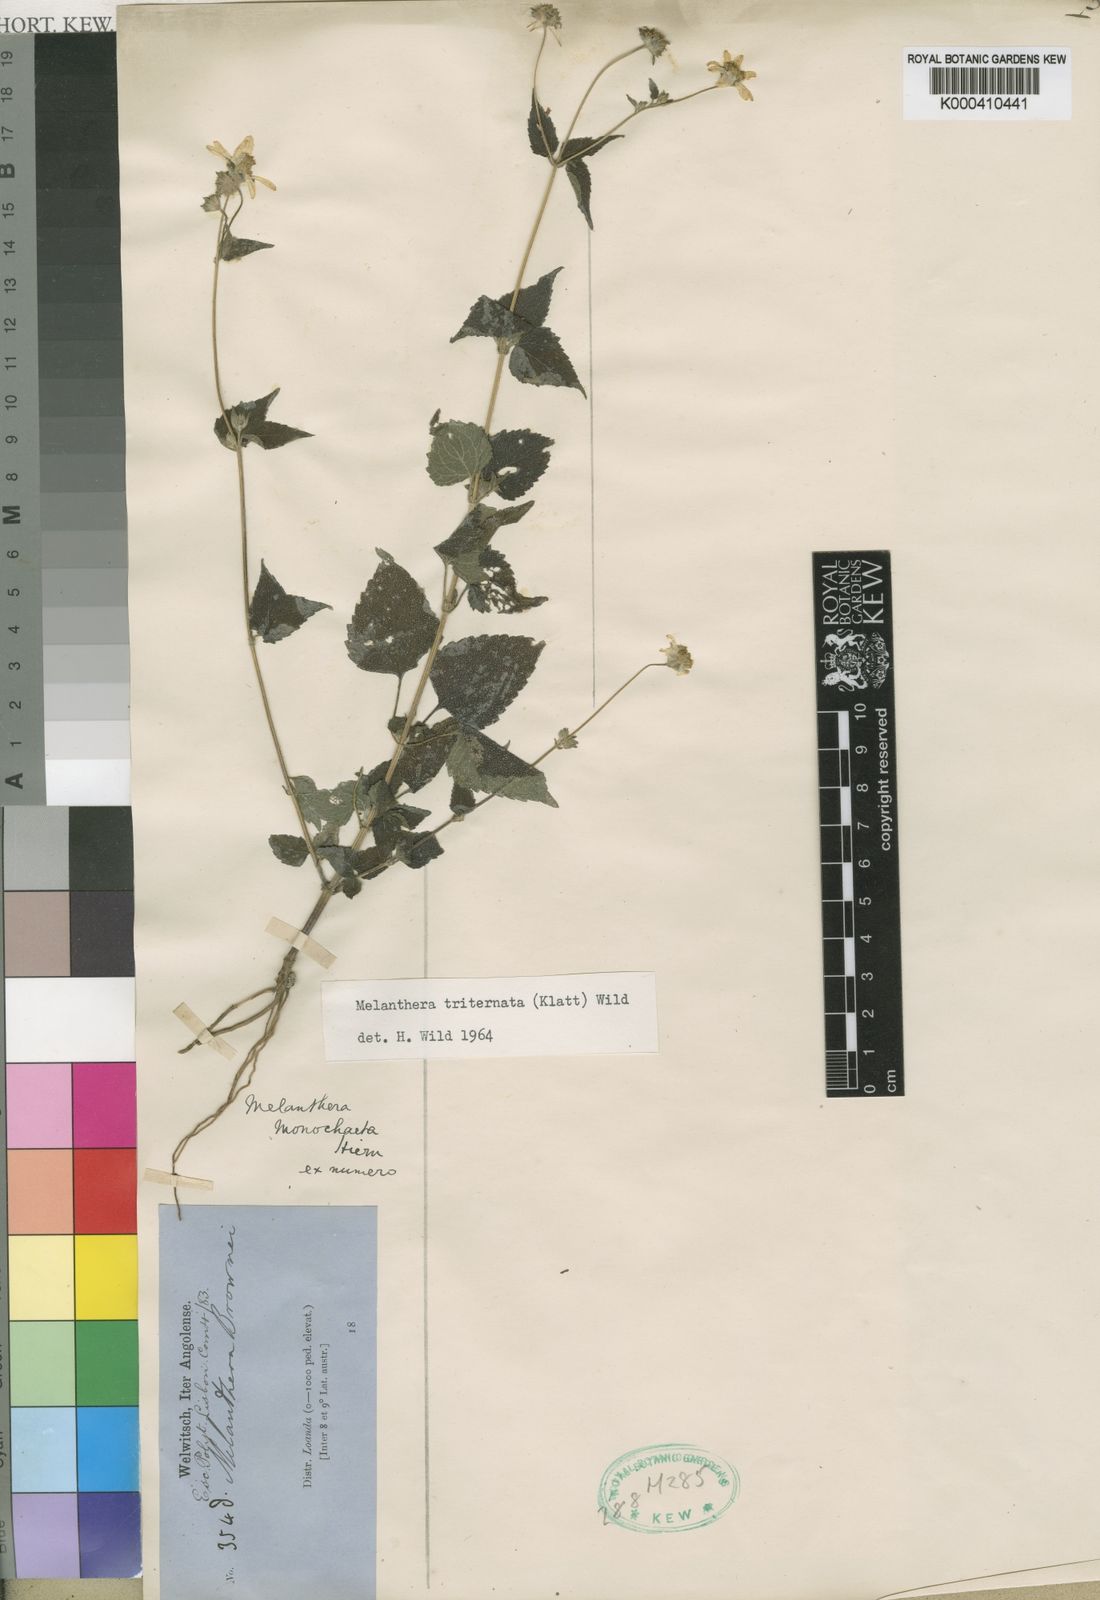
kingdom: Plantae
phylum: Tracheophyta
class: Magnoliopsida
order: Asterales
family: Asteraceae
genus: Lipotriche
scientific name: Lipotriche marlothiana
